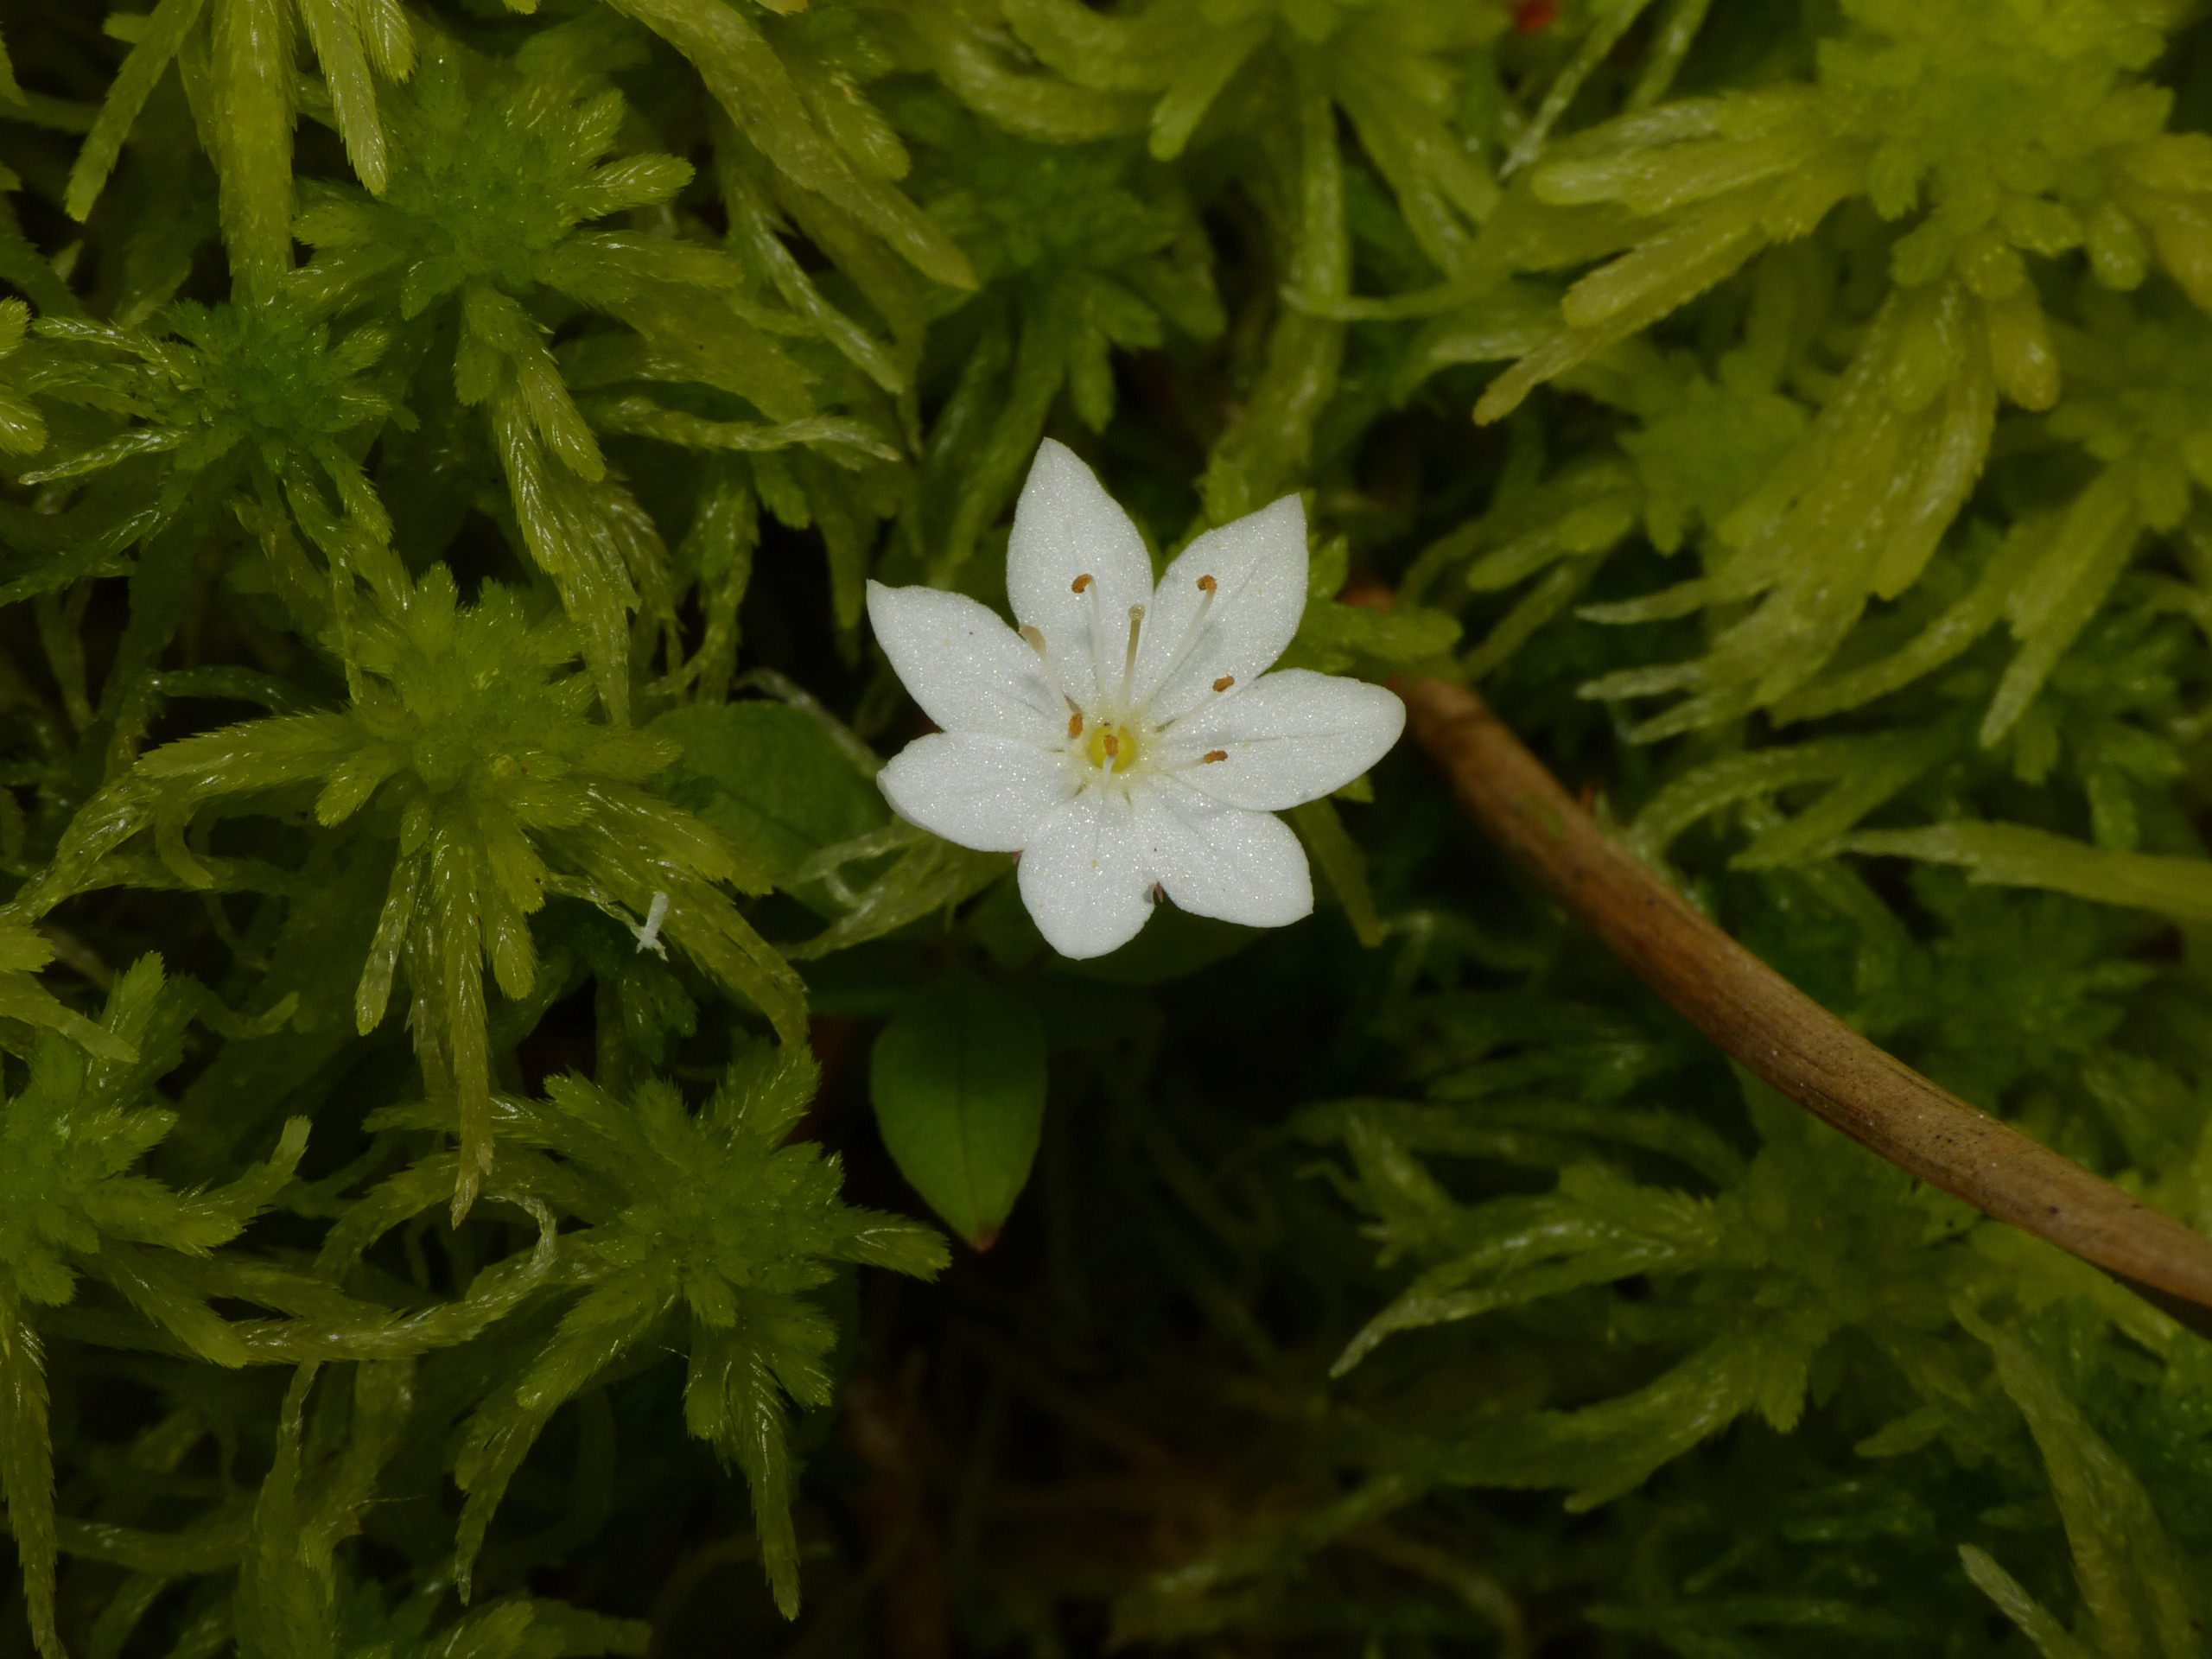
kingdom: Plantae
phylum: Tracheophyta
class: Magnoliopsida
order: Ericales
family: Primulaceae
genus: Lysimachia
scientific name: Lysimachia europaea
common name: Skovstjerne
